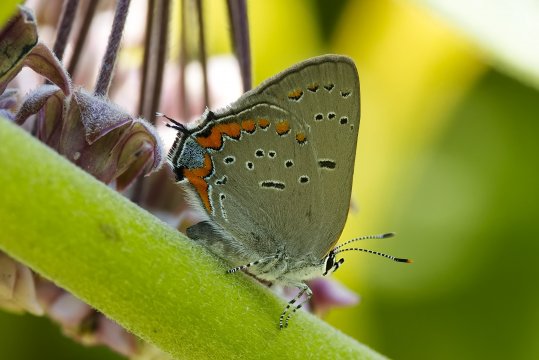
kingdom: Animalia
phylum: Arthropoda
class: Insecta
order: Lepidoptera
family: Lycaenidae
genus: Strymon
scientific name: Strymon acadica
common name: Acadian Hairstreak
